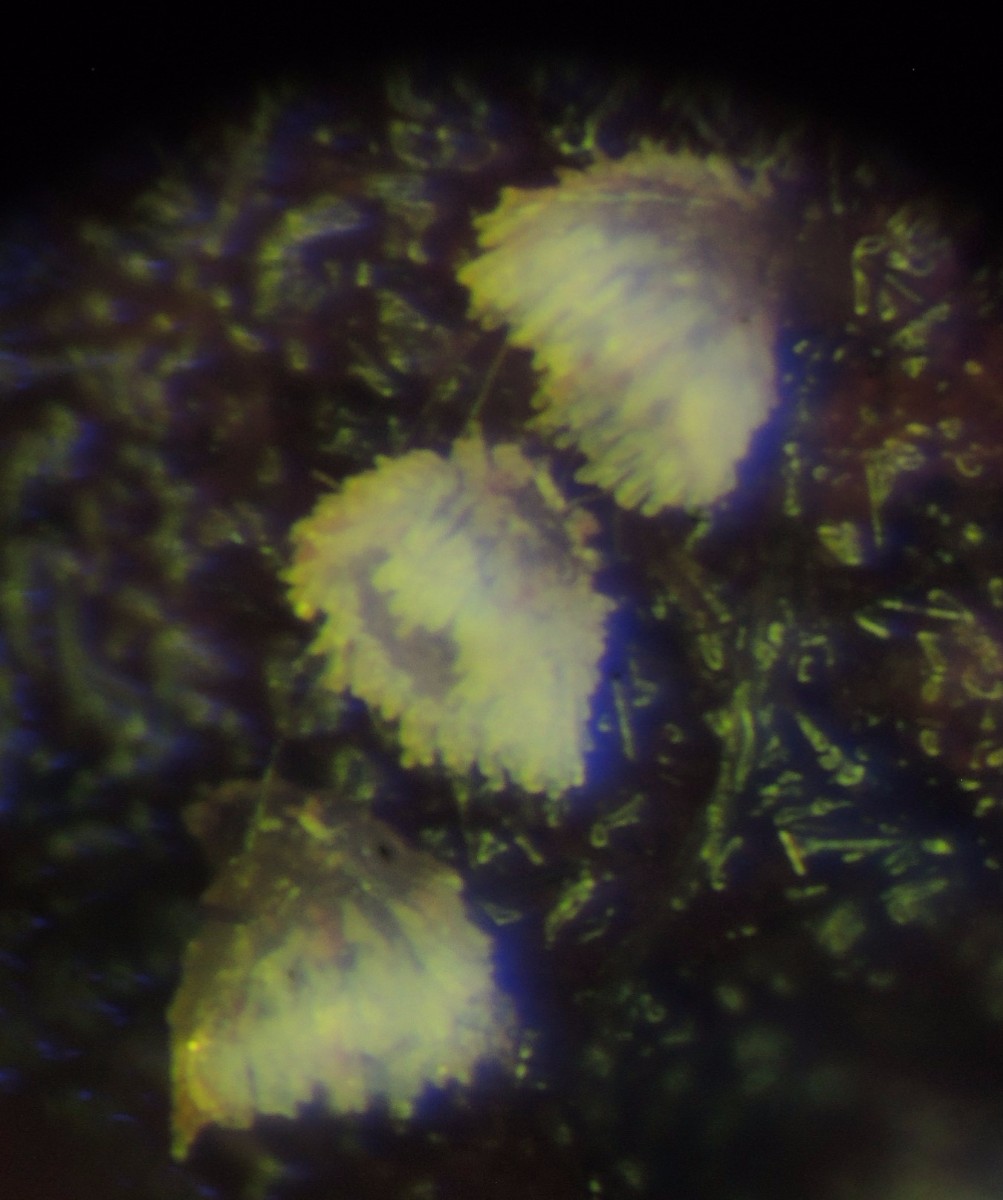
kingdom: Fungi
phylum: Ascomycota
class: Leotiomycetes
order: Helotiales
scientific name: Helotiales
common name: stilkskiveordenen
